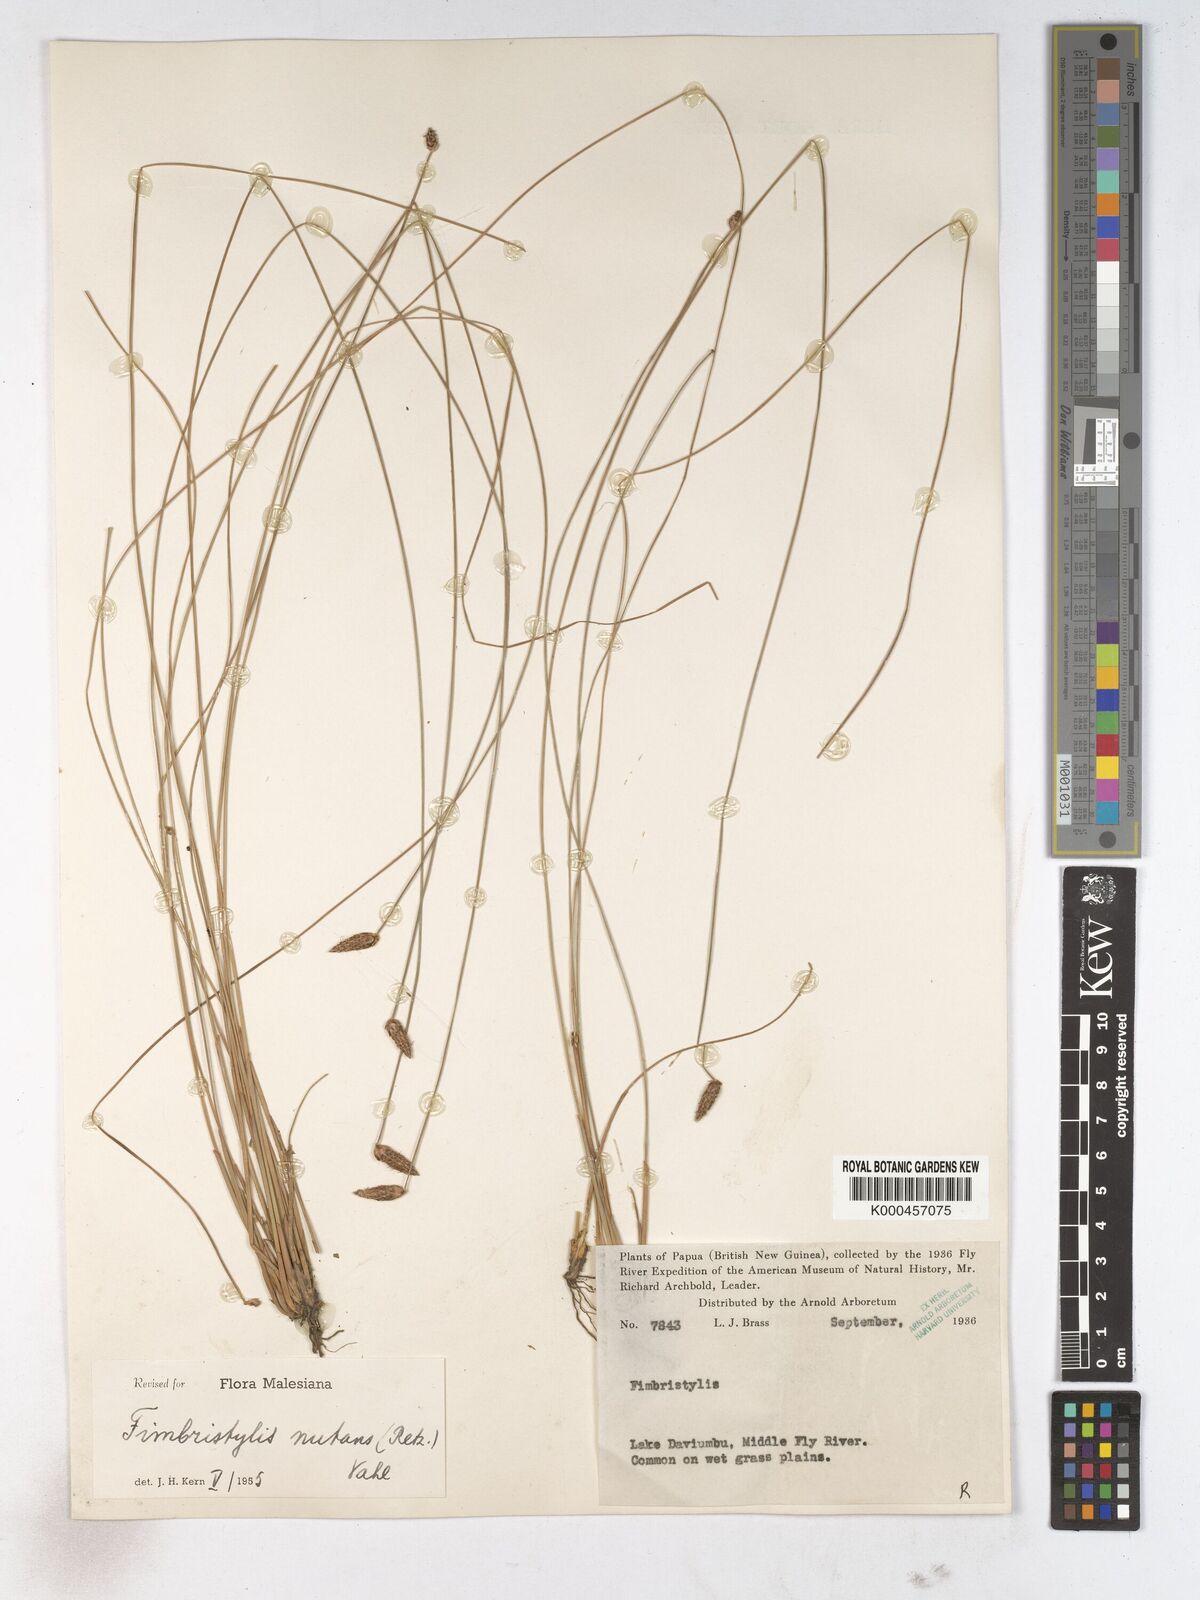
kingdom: Plantae
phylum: Tracheophyta
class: Liliopsida
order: Poales
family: Cyperaceae
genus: Fimbristylis
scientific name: Fimbristylis nutans
